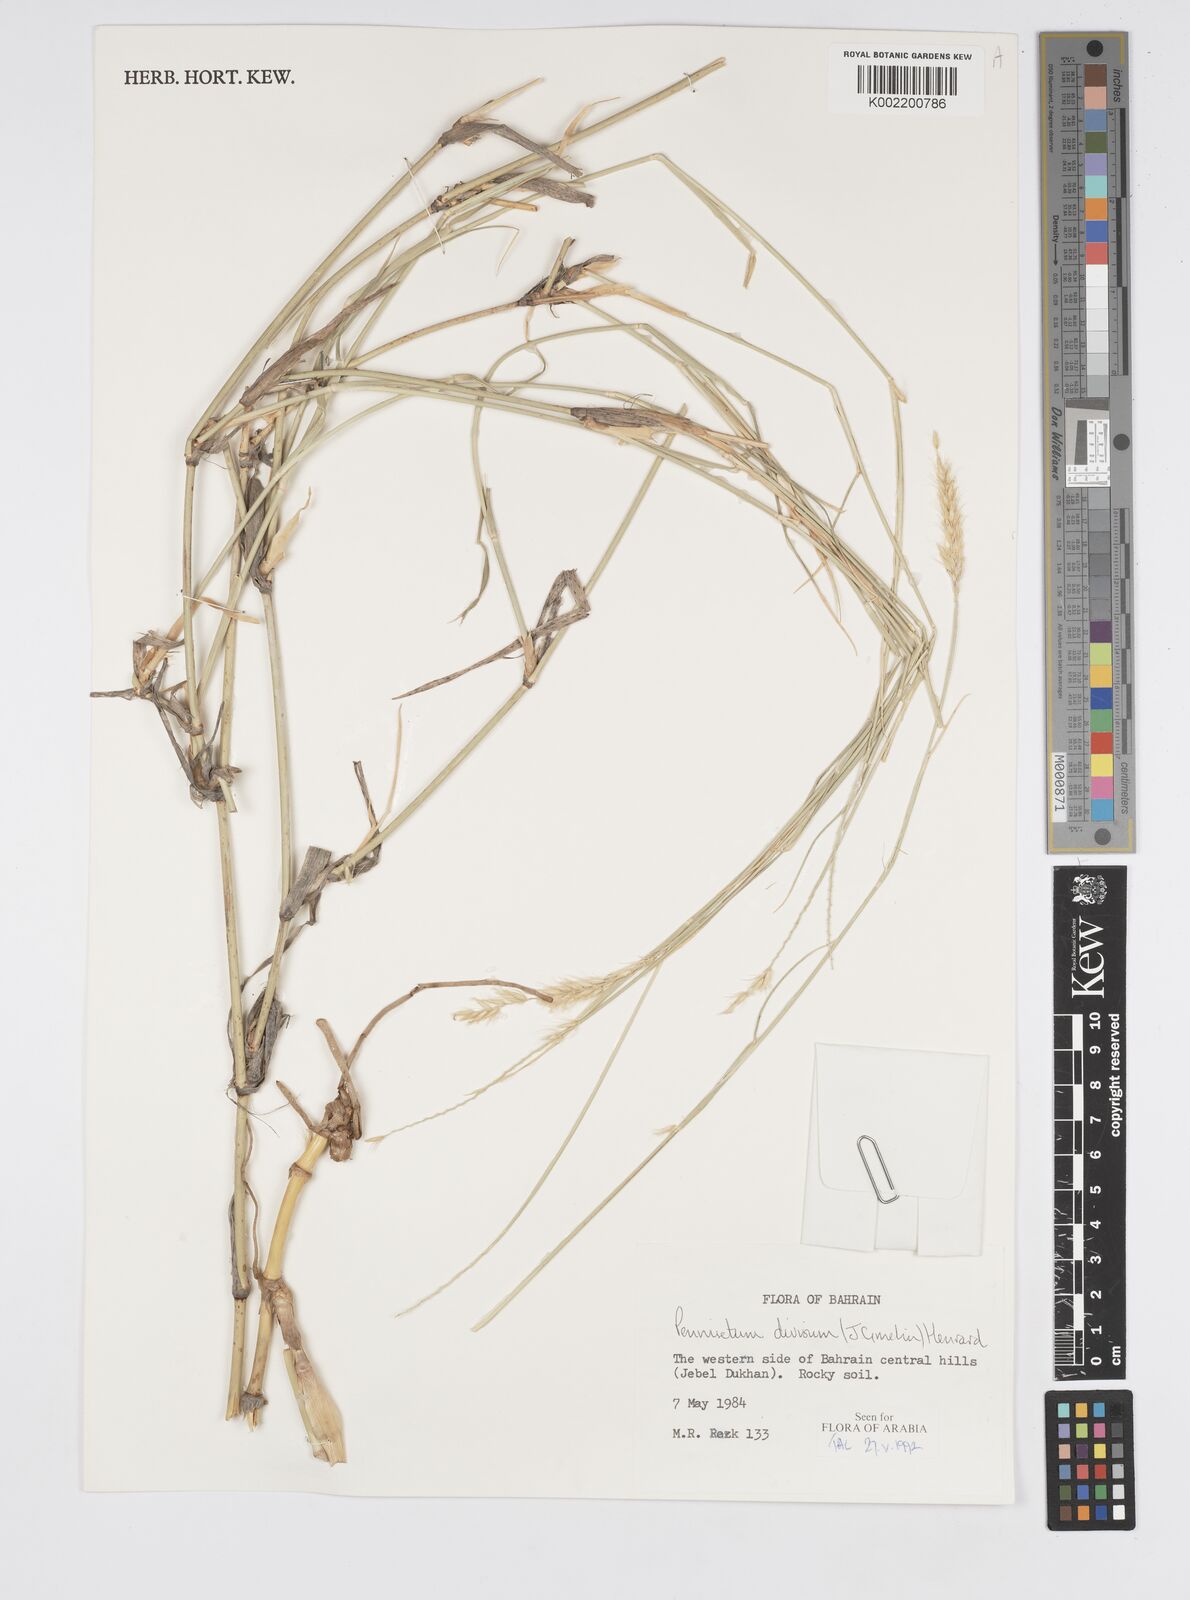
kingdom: Plantae
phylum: Tracheophyta
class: Liliopsida
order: Poales
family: Poaceae
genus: Cenchrus
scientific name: Cenchrus divisus
